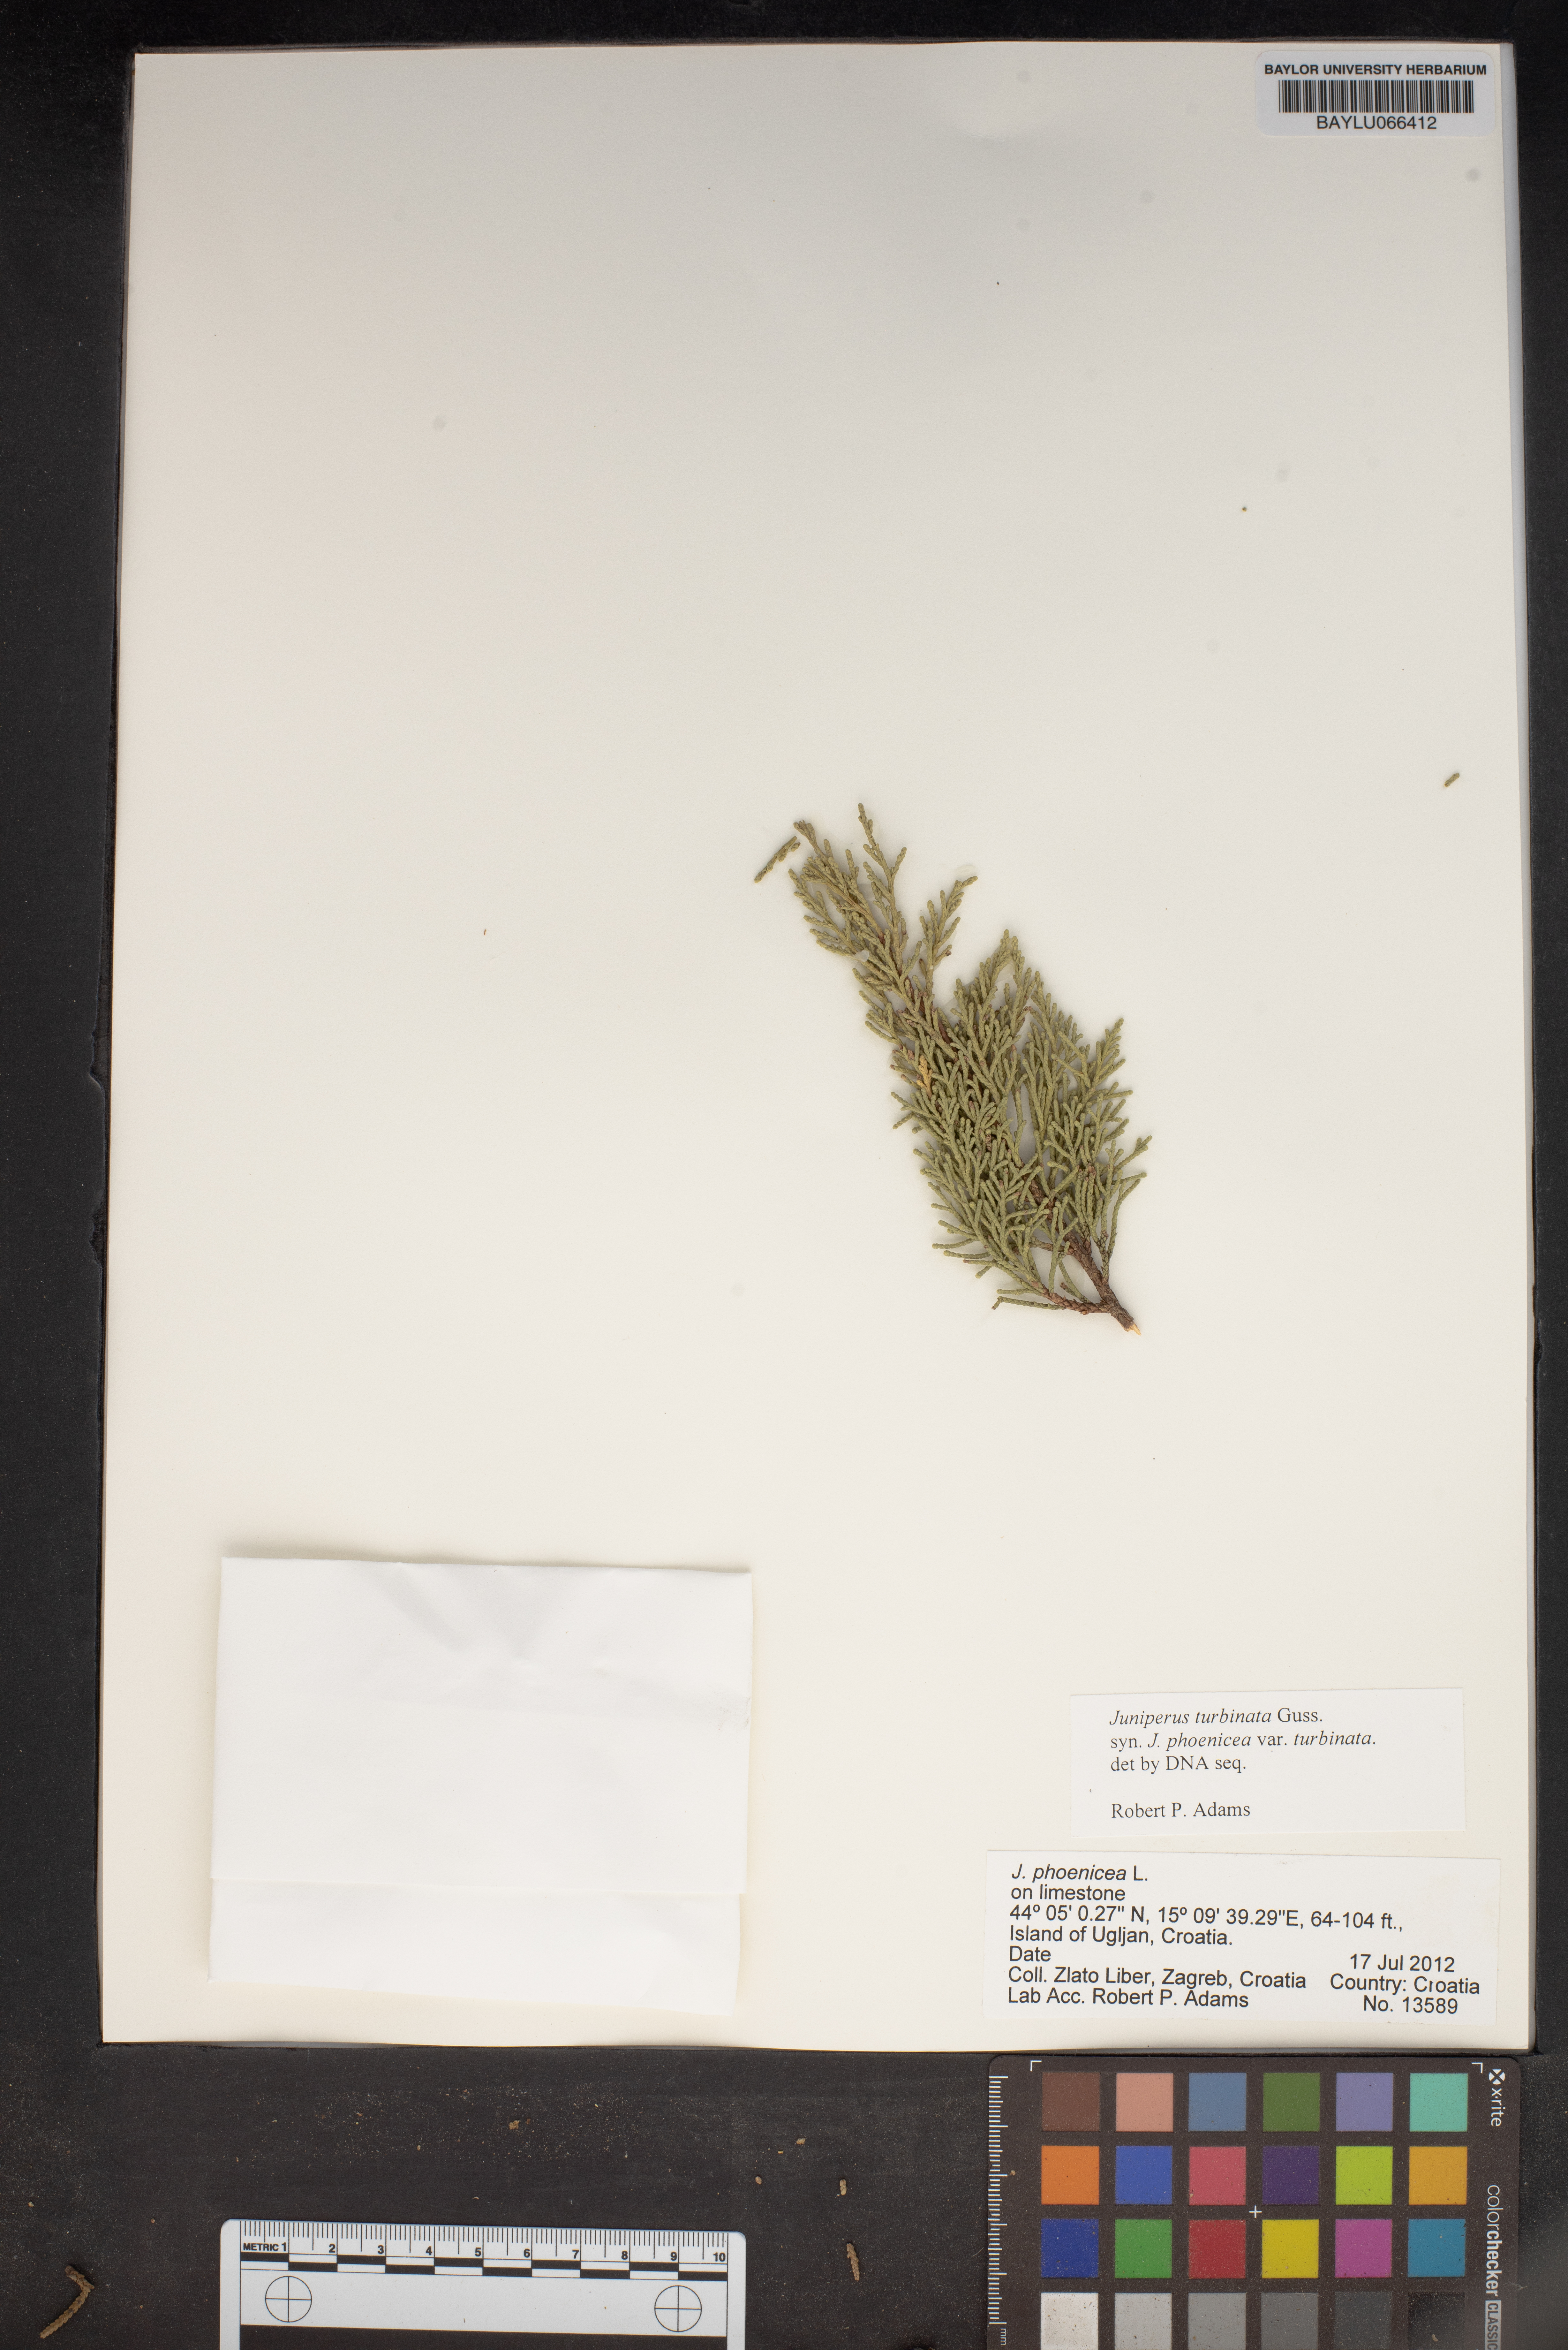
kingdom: Plantae
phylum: Tracheophyta
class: Pinopsida
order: Pinales
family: Cupressaceae
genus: Juniperus
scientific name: Juniperus phoenicea
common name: Phoenician juniper
